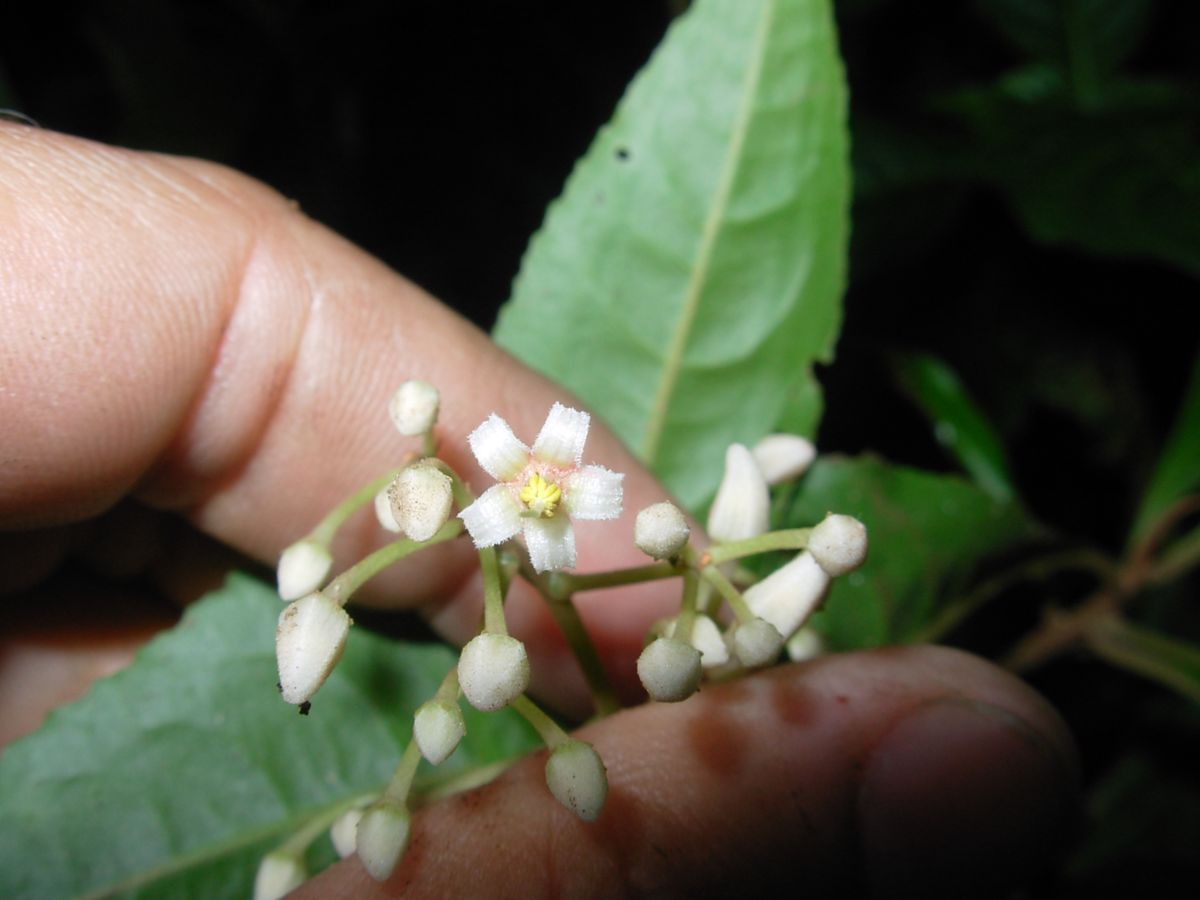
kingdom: Plantae
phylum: Tracheophyta
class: Magnoliopsida
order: Ericales
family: Primulaceae
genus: Parathesis
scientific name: Parathesis aurantiaca
